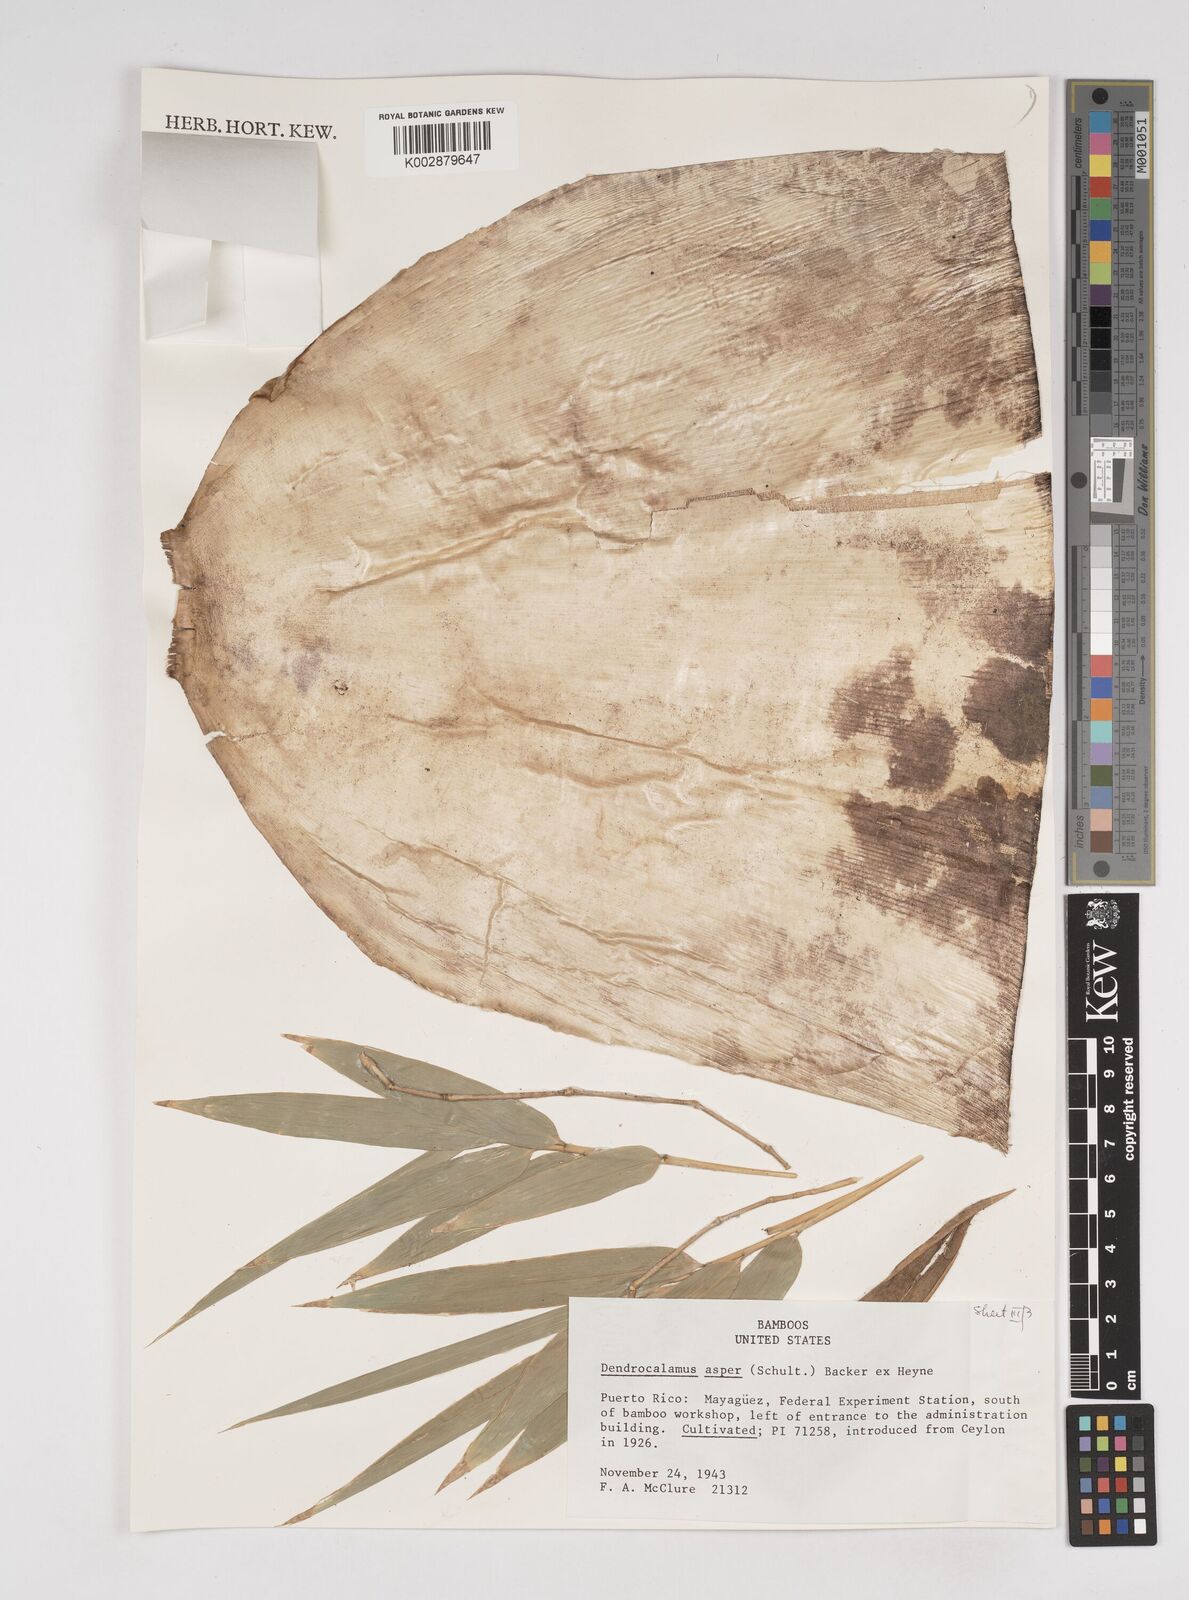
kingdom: Plantae
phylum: Tracheophyta
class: Liliopsida
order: Poales
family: Poaceae
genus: Dendrocalamus
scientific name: Dendrocalamus asper
